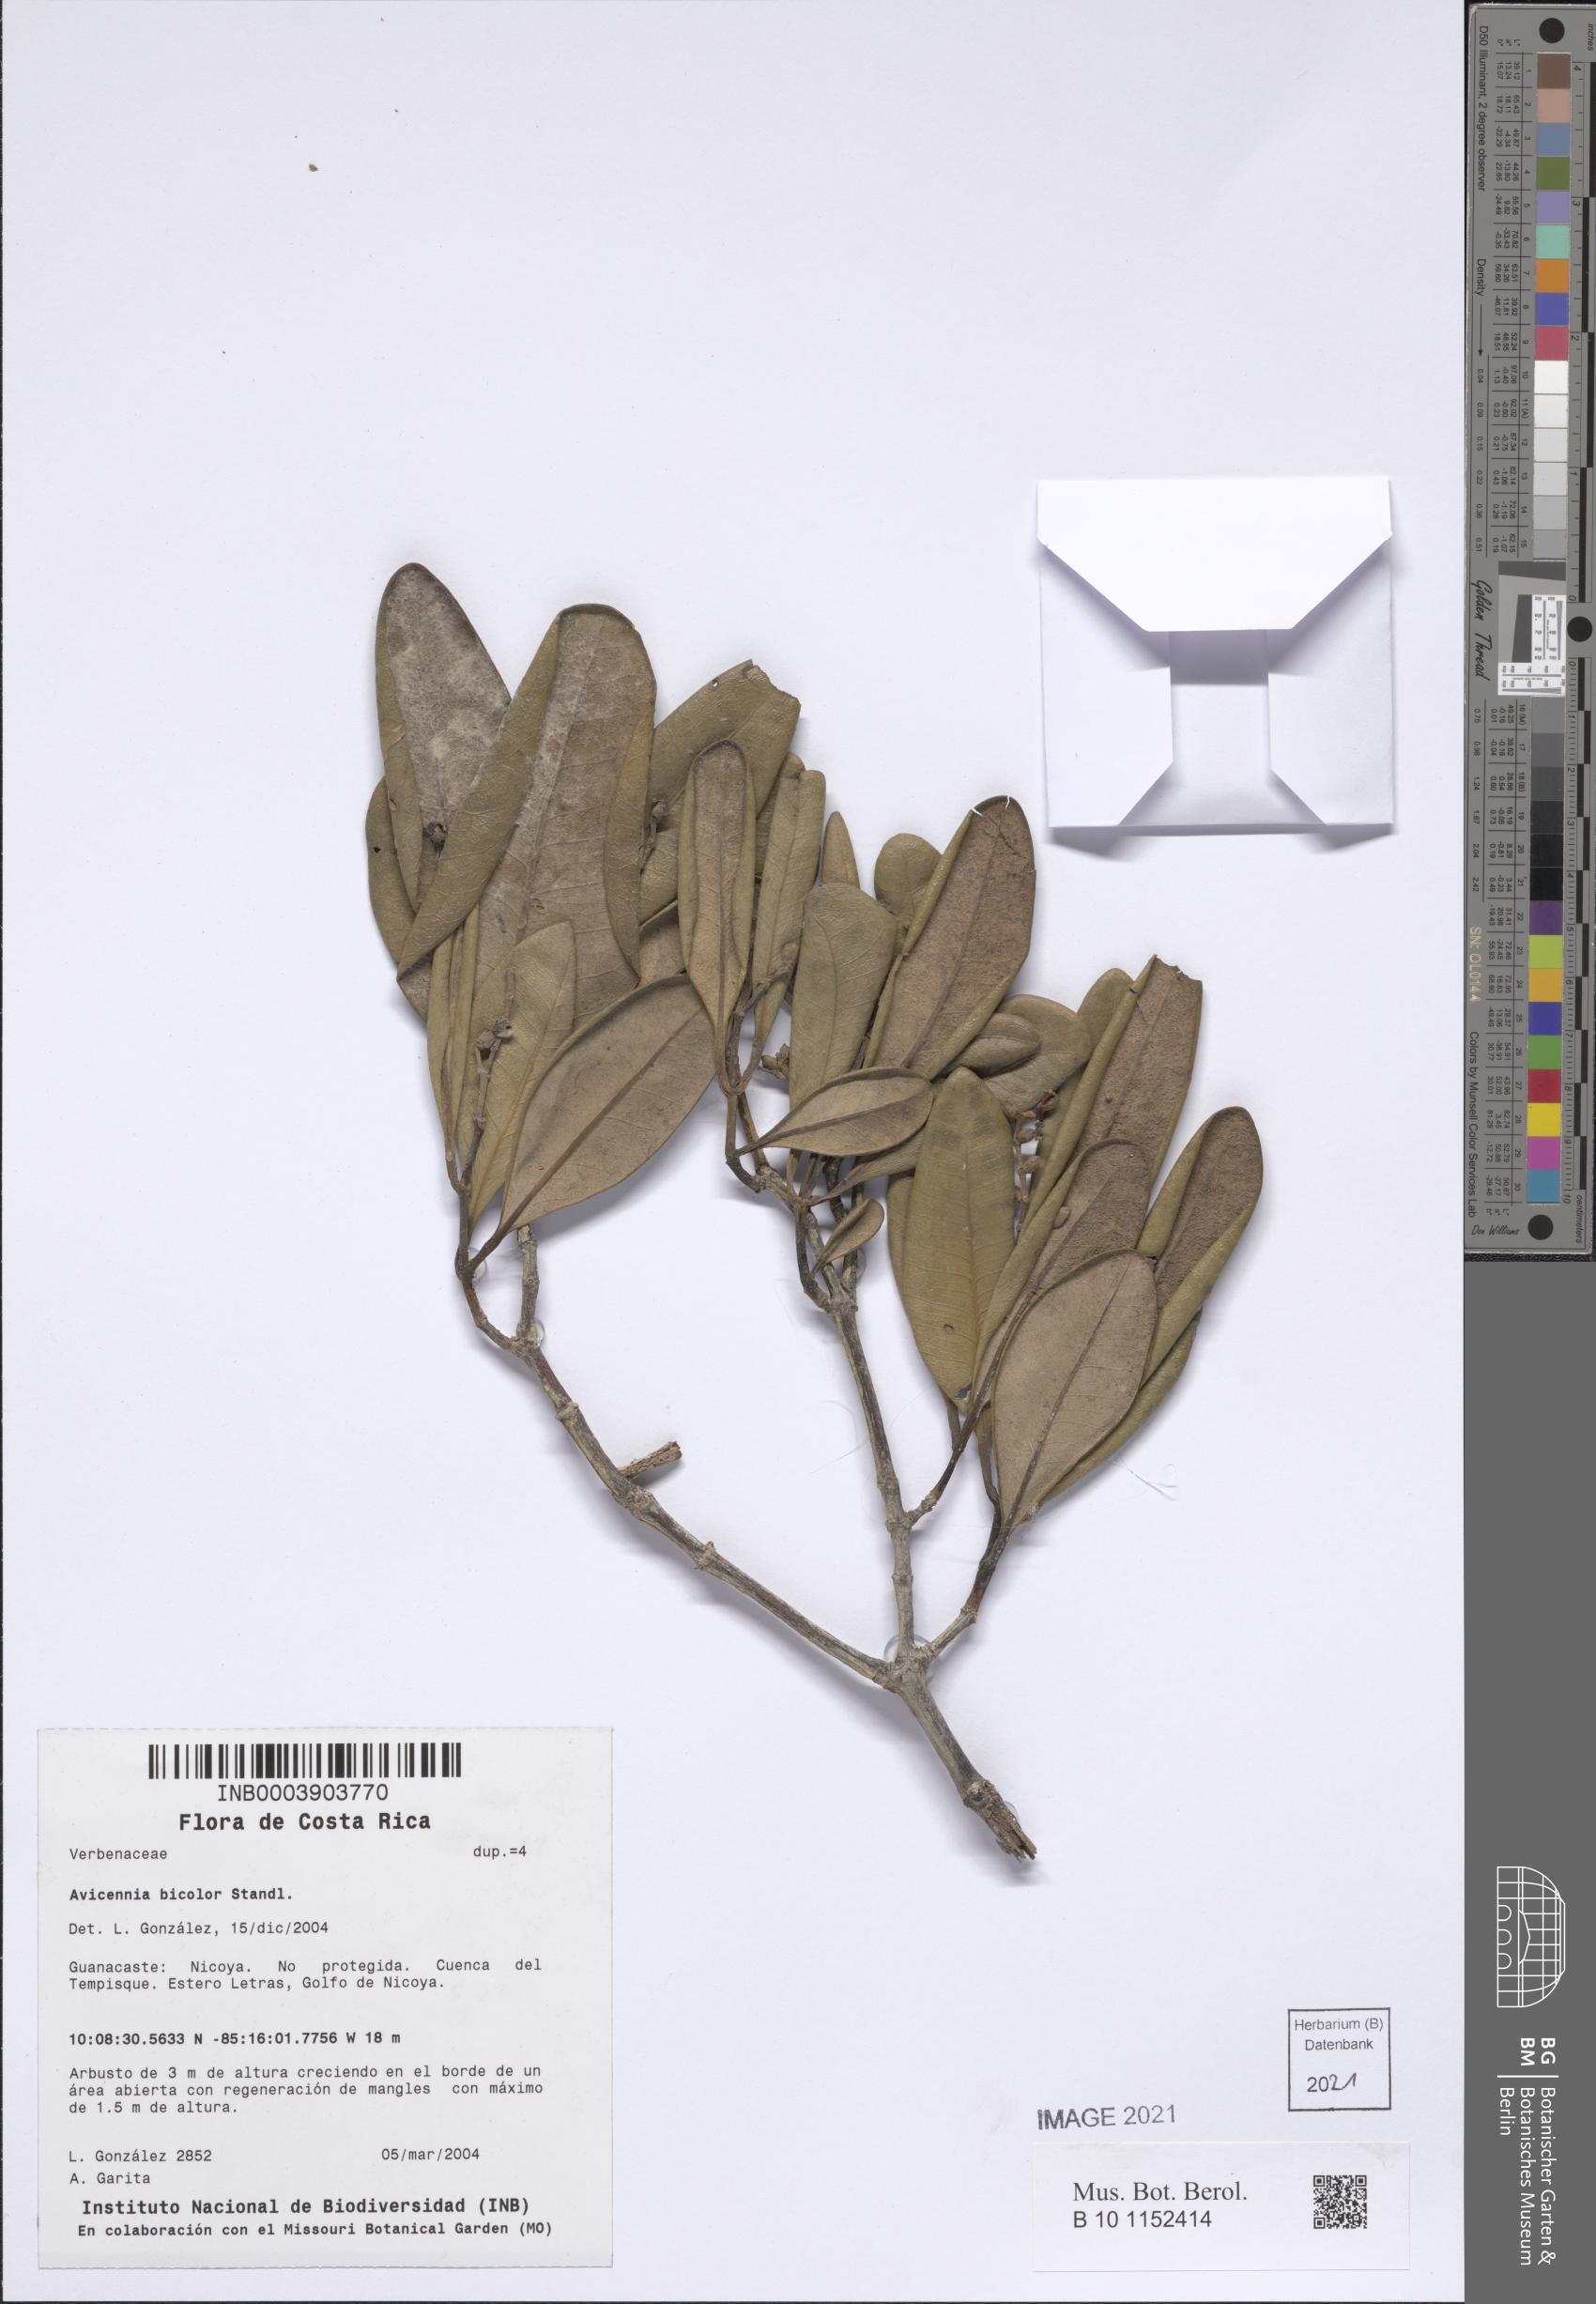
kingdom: Plantae
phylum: Tracheophyta
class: Magnoliopsida
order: Lamiales
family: Acanthaceae
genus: Avicennia
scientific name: Avicennia bicolor
